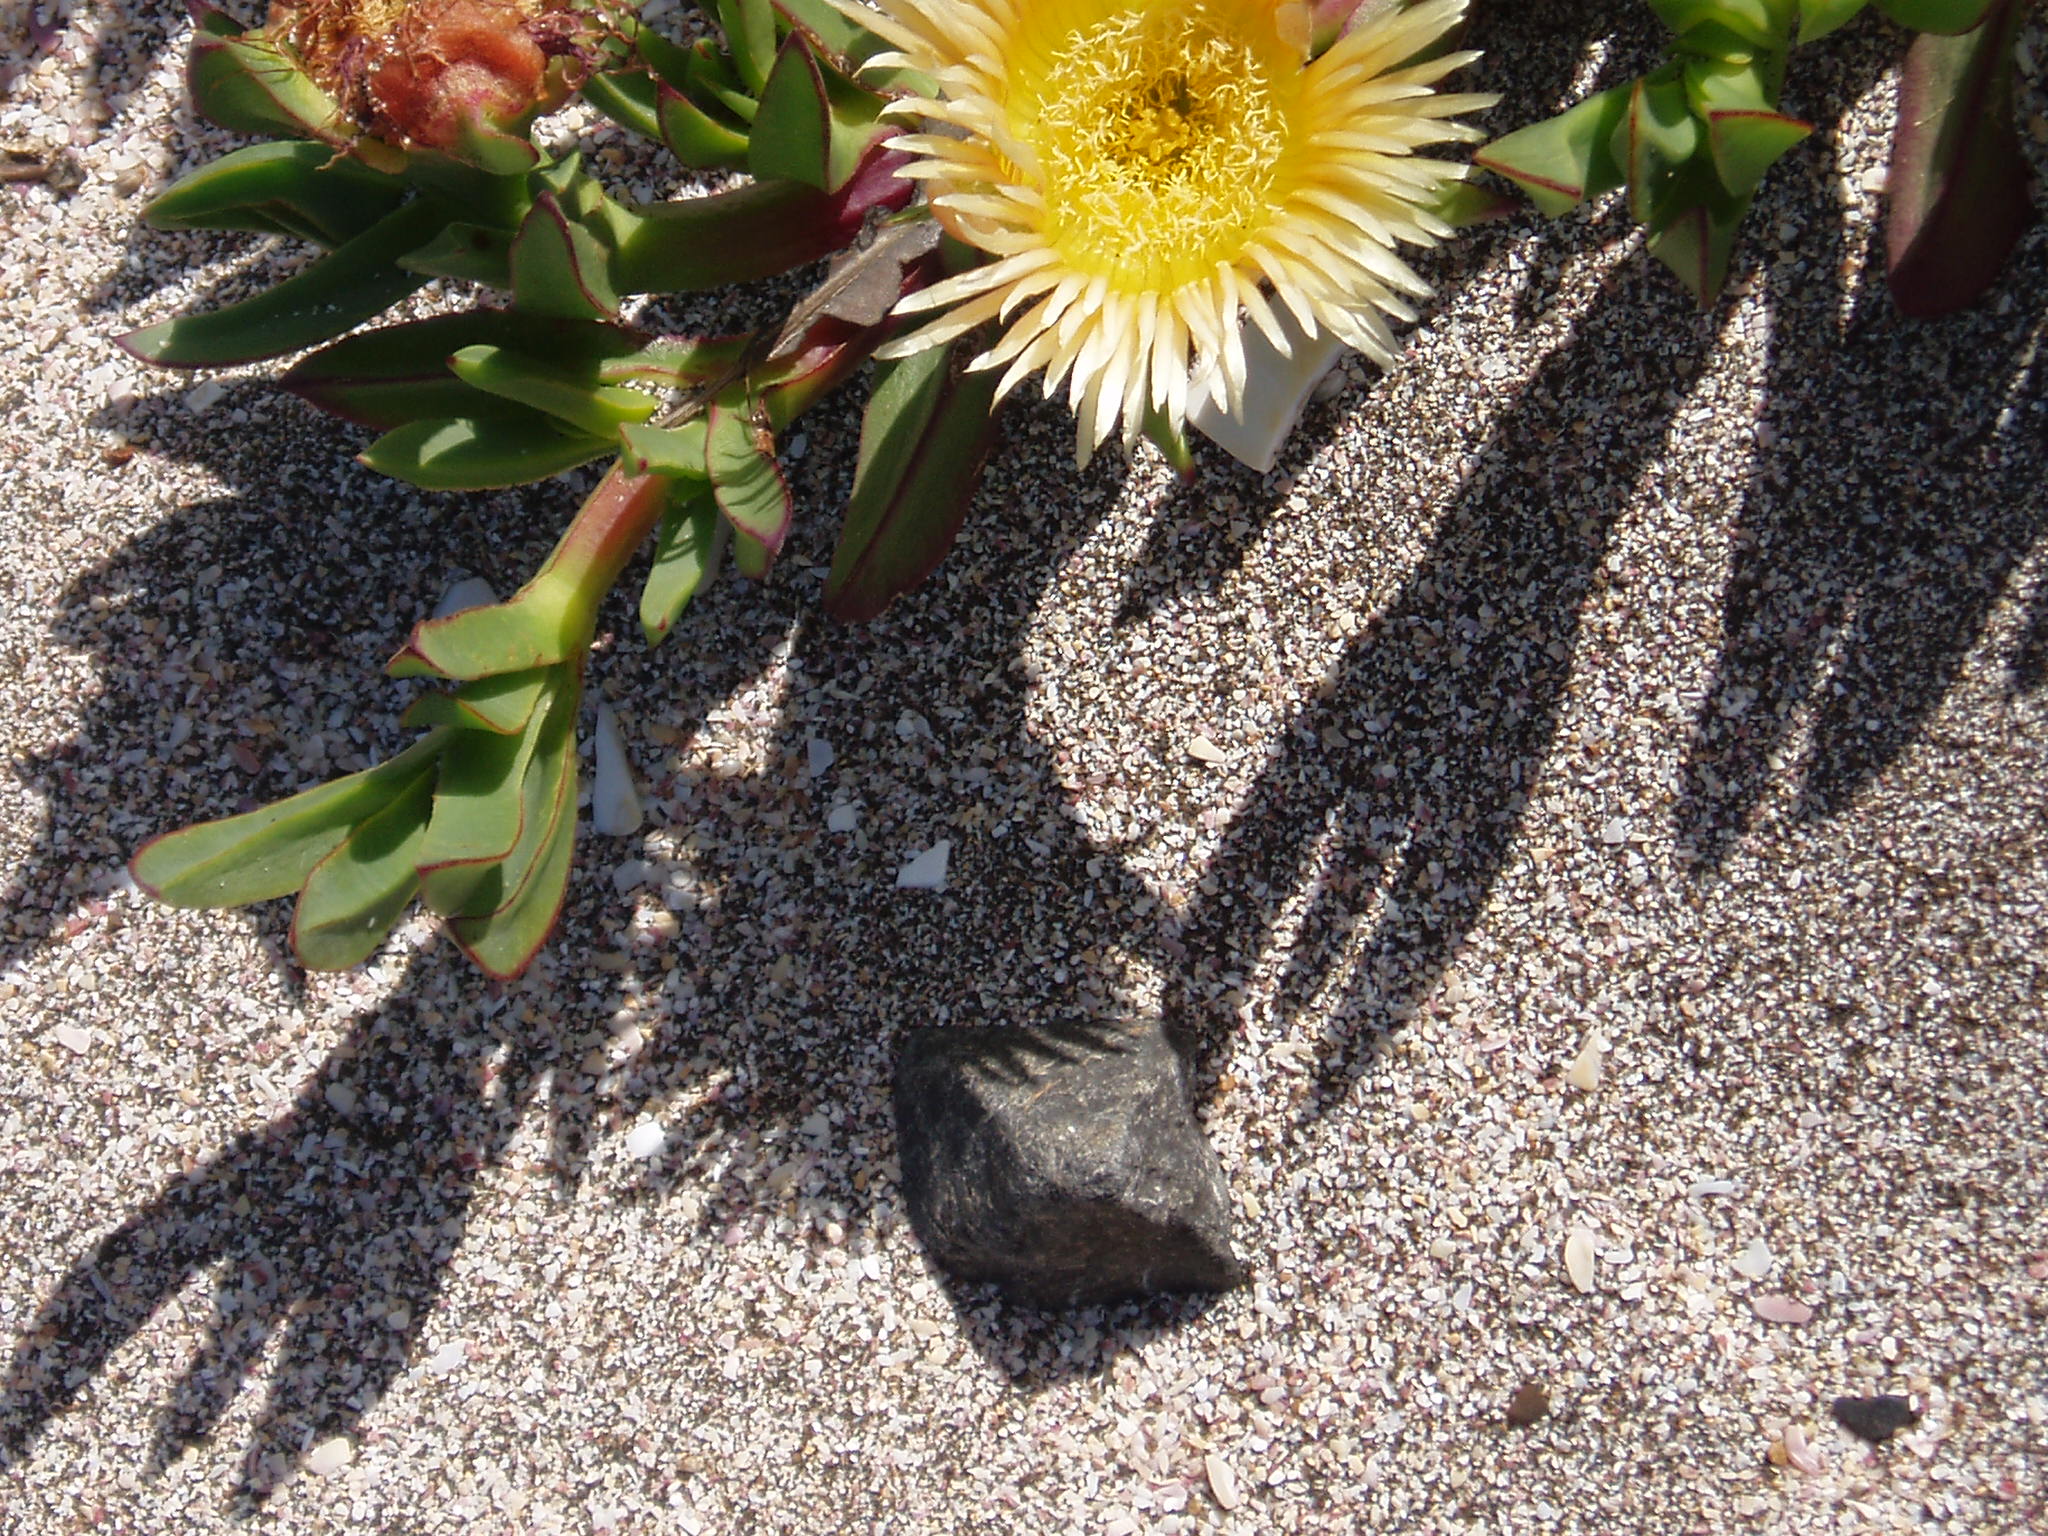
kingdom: Plantae
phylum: Tracheophyta
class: Magnoliopsida
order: Caryophyllales
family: Aizoaceae
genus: Carpobrotus
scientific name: Carpobrotus edulis
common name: Hottentot-fig
